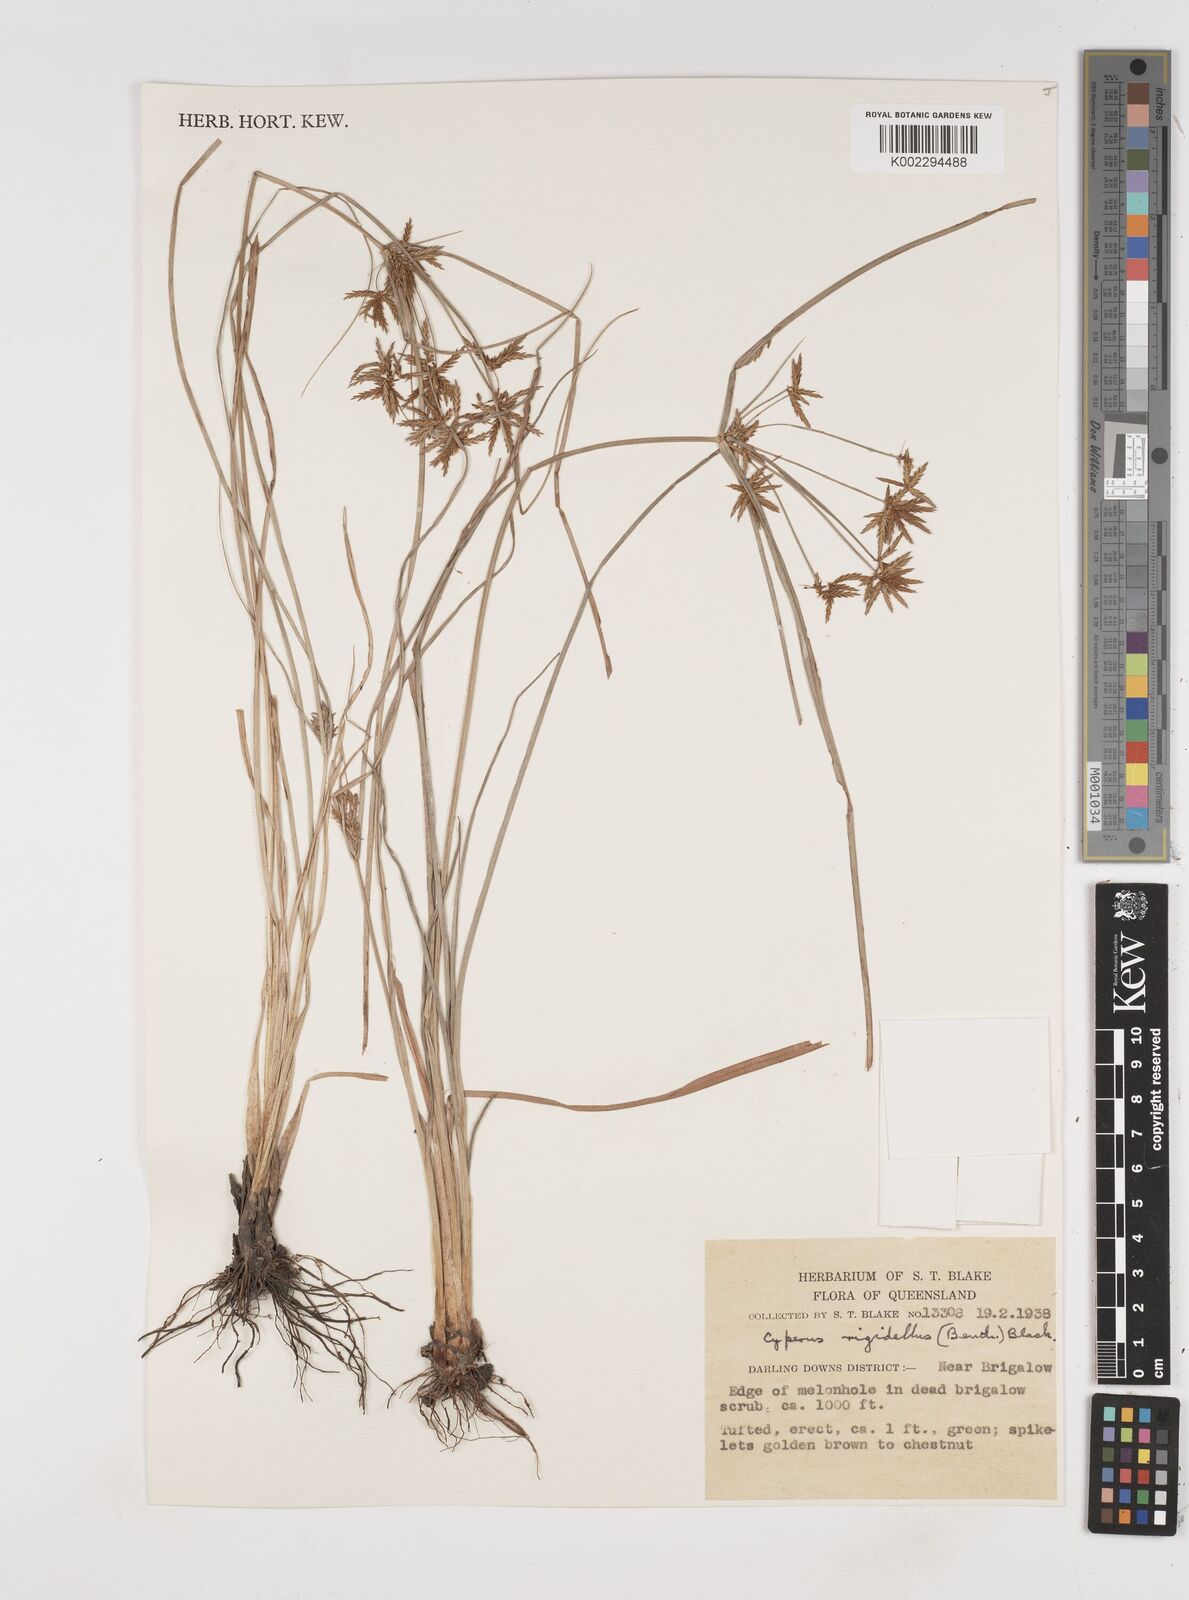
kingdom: Plantae
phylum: Tracheophyta
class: Liliopsida
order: Poales
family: Cyperaceae
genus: Cyperus
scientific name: Cyperus rigidellus
